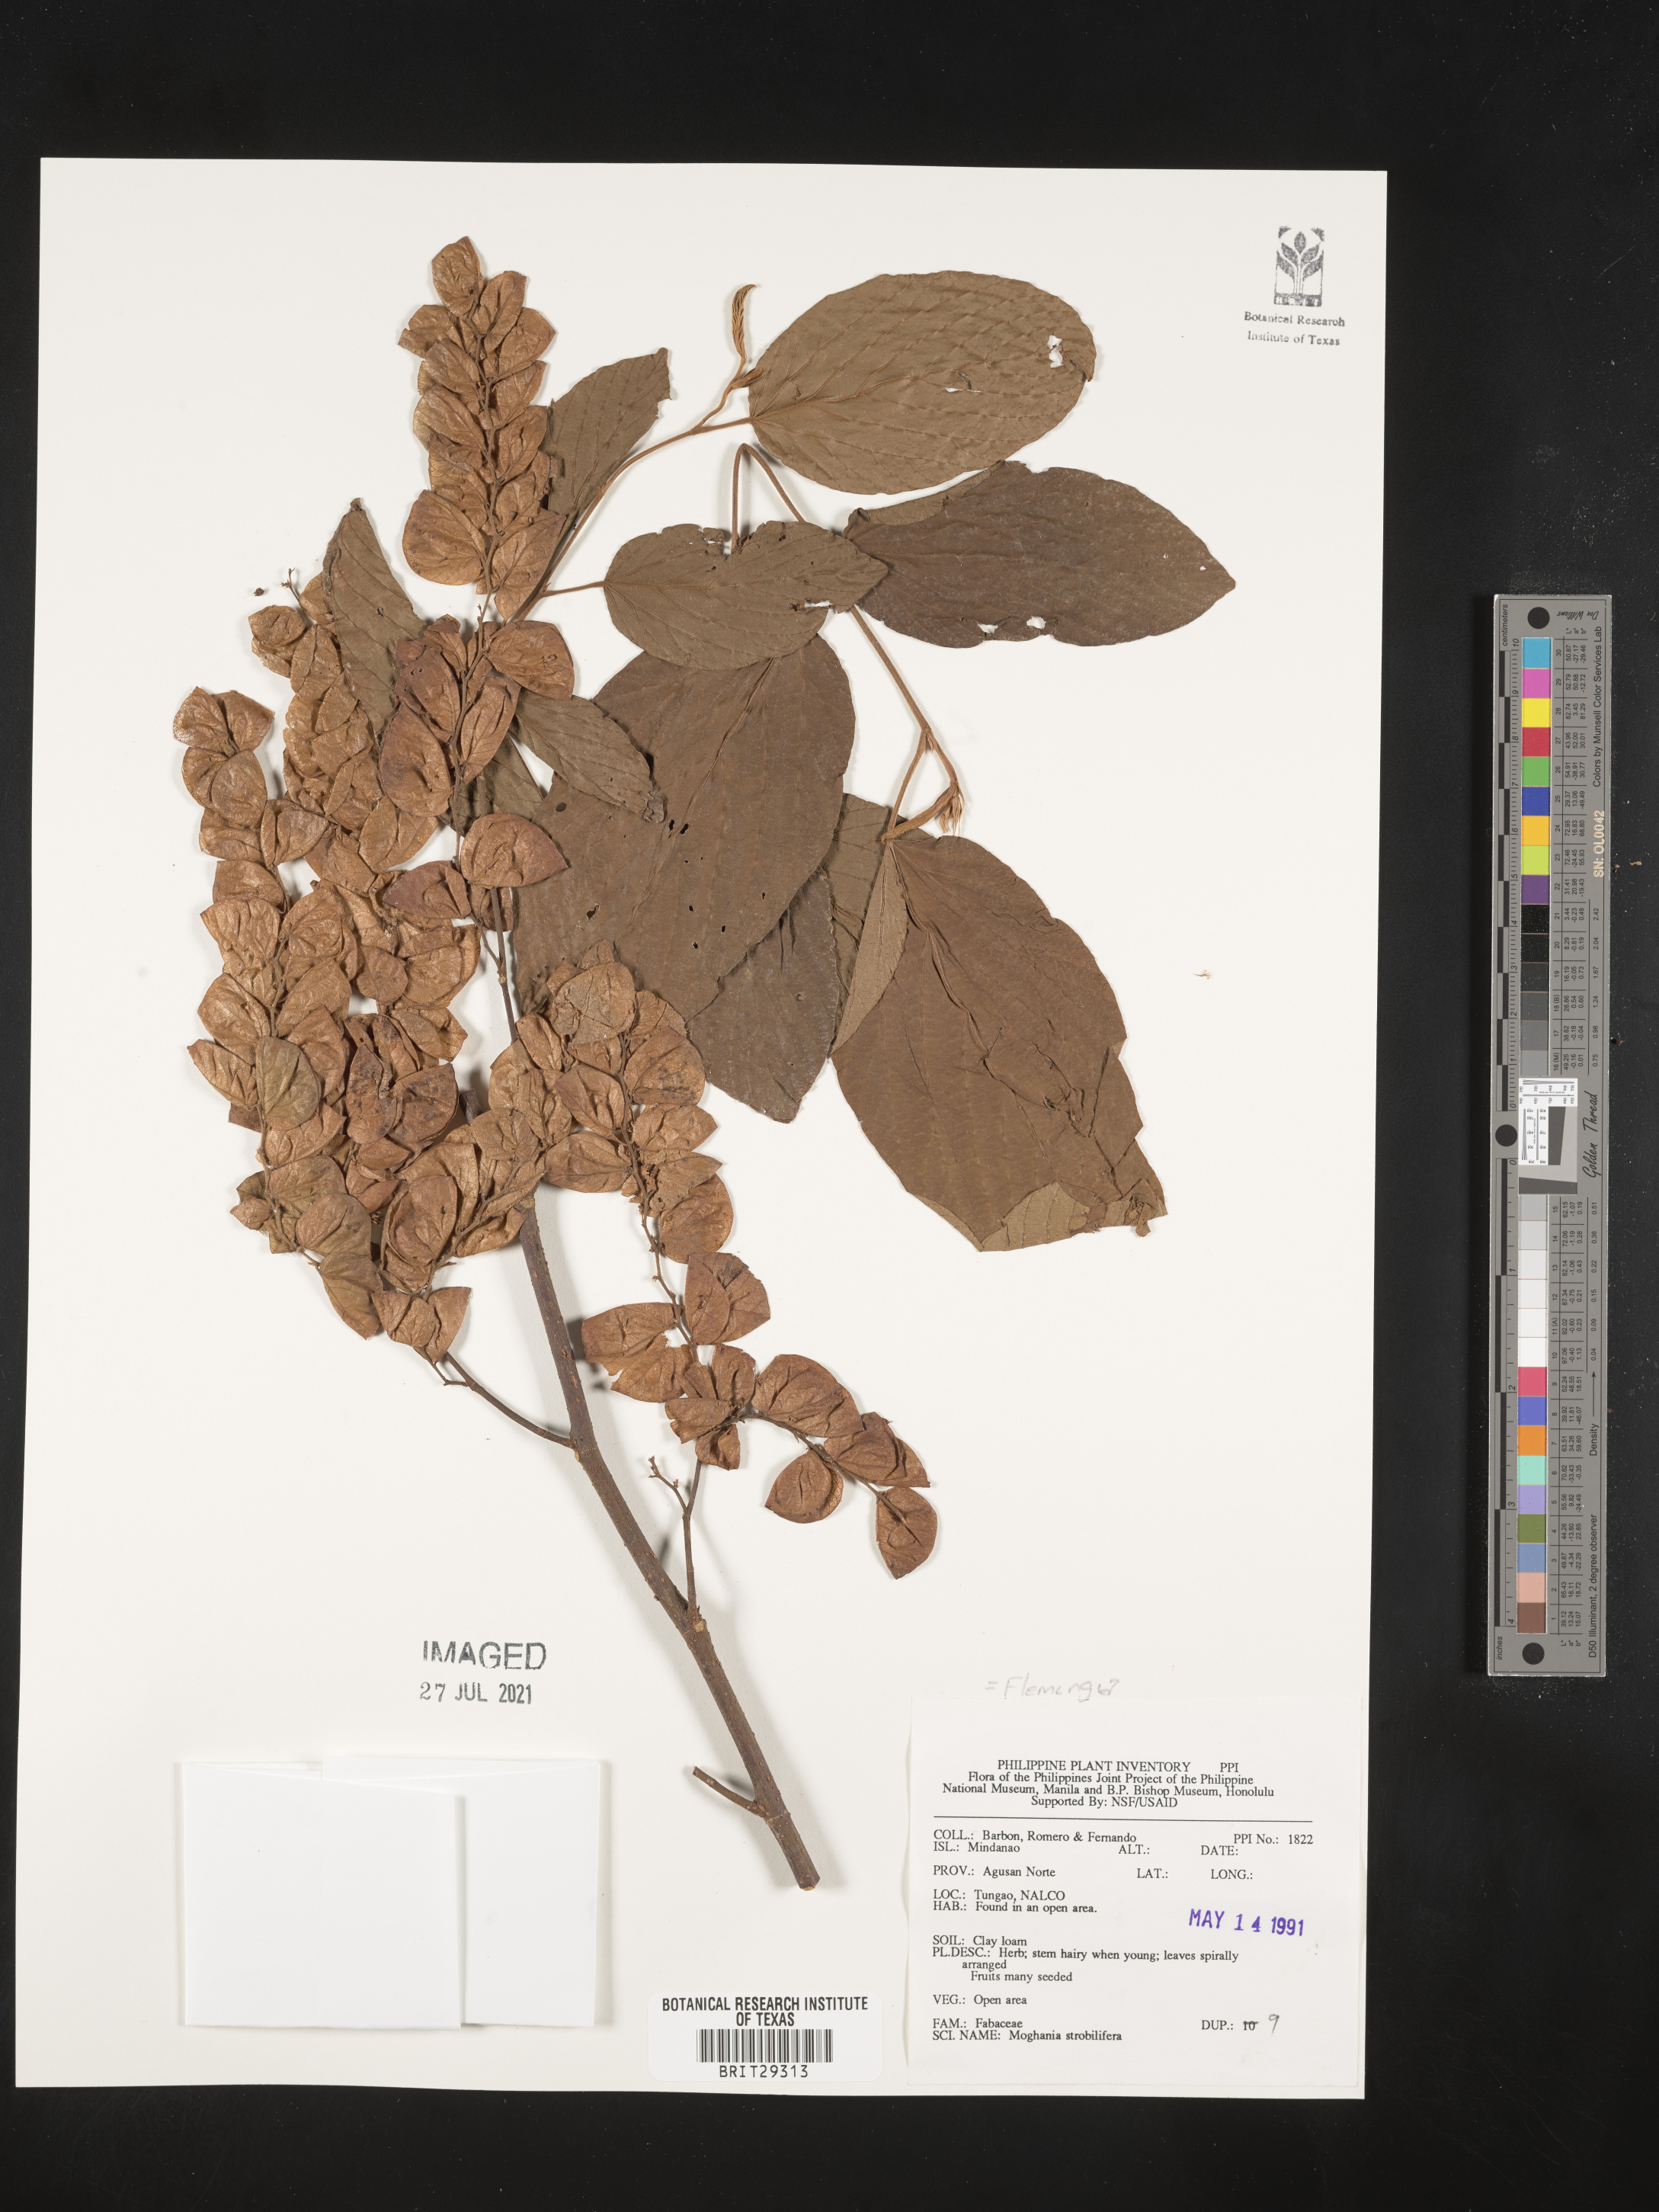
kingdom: Plantae
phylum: Tracheophyta
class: Magnoliopsida
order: Fabales
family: Fabaceae
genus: Flemingia
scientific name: Flemingia
